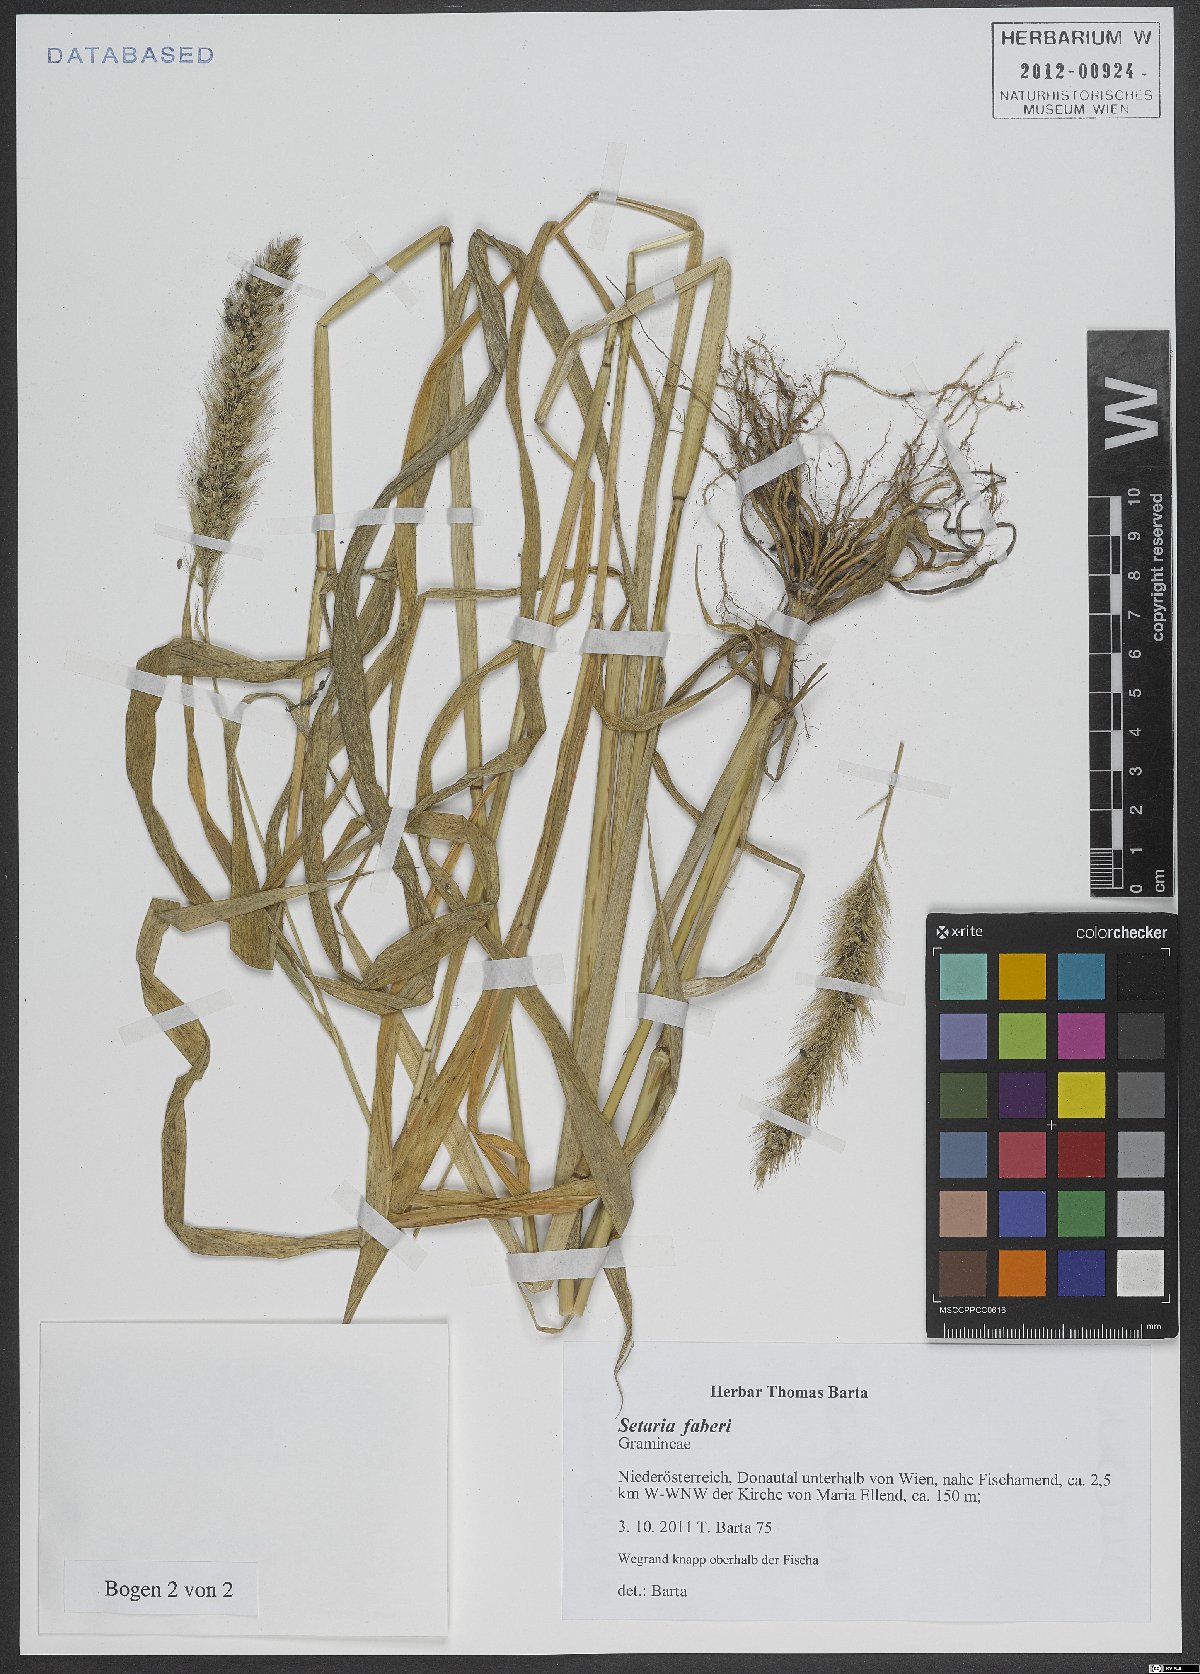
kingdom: Plantae
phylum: Tracheophyta
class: Liliopsida
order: Poales
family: Poaceae
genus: Setaria
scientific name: Setaria faberi
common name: Nodding bristle-grass
